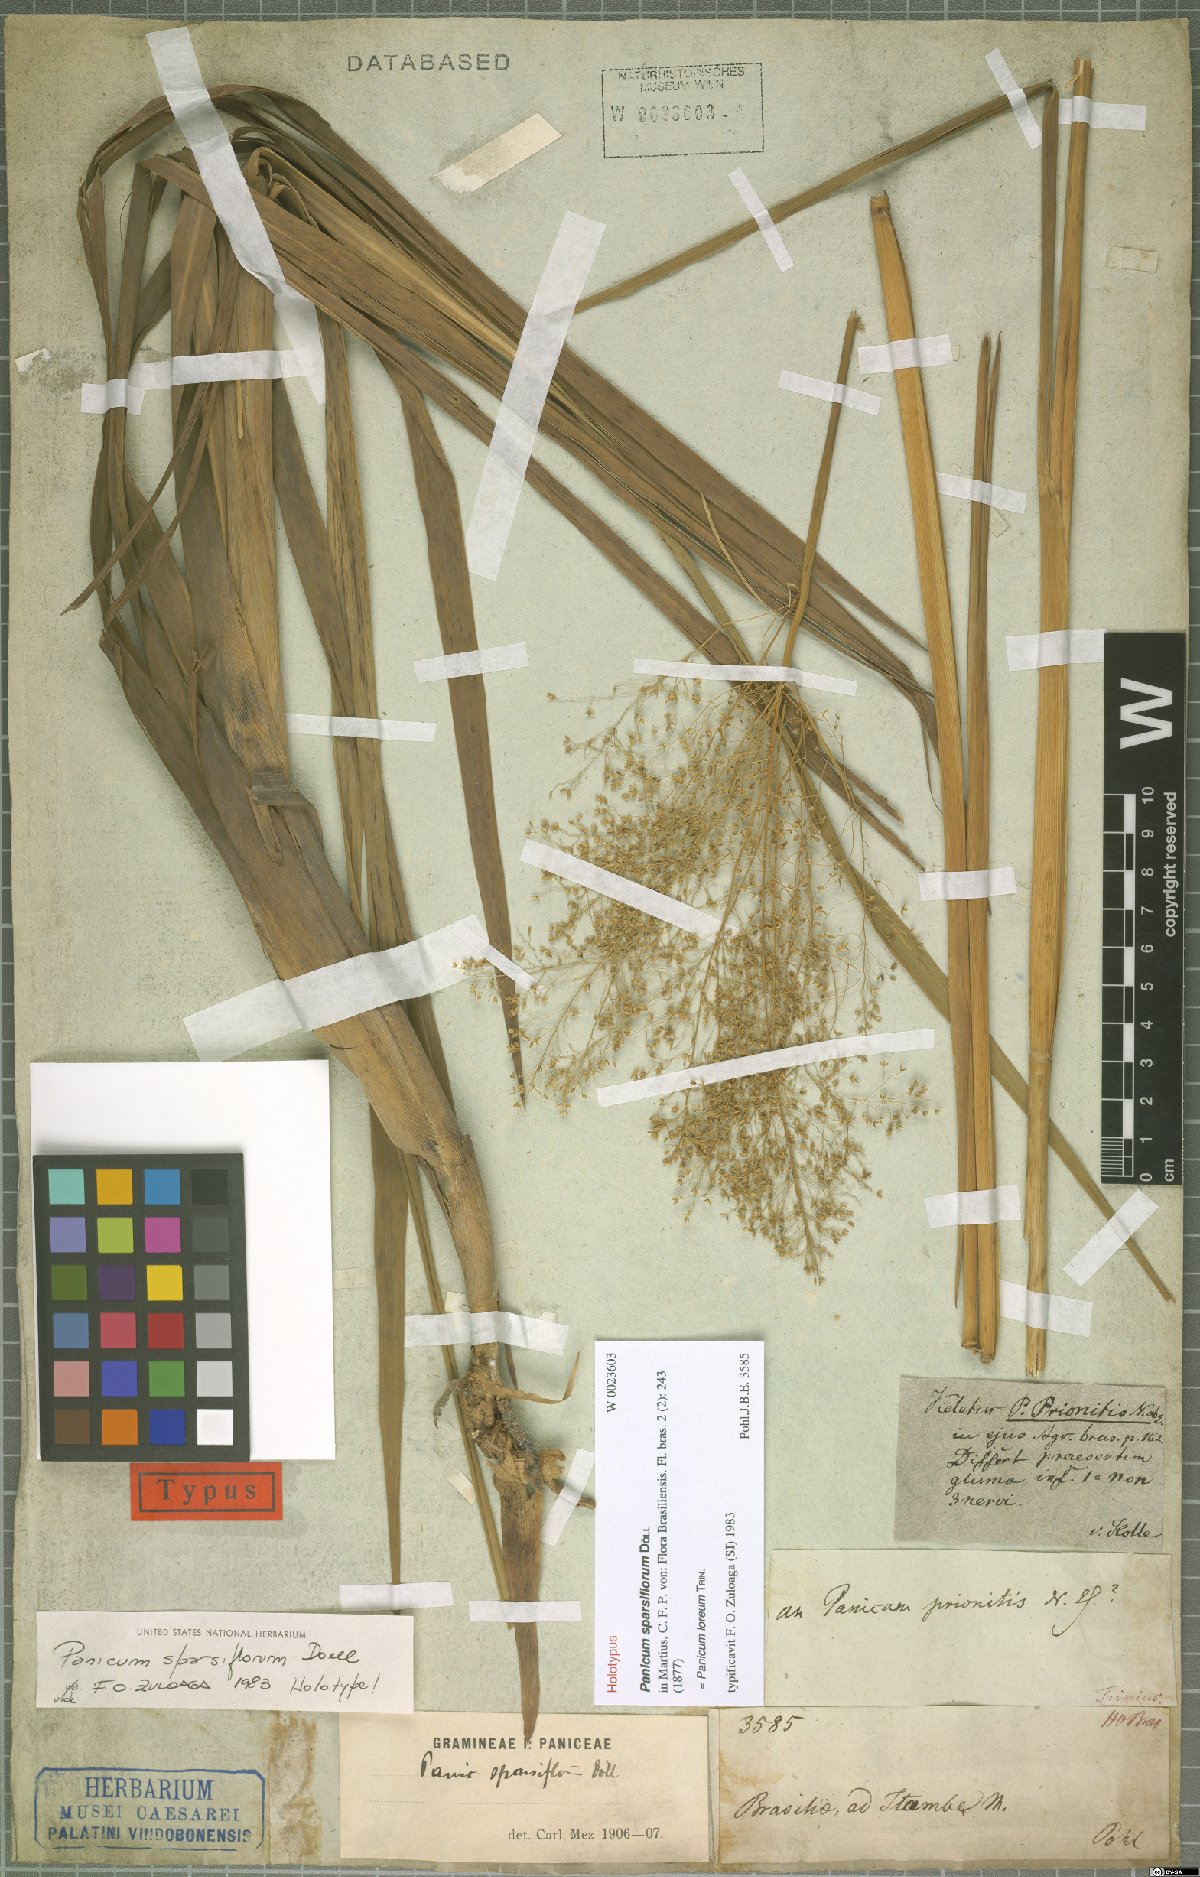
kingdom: Plantae
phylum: Tracheophyta
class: Liliopsida
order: Poales
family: Poaceae
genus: Apochloa
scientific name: Apochloa lorea
